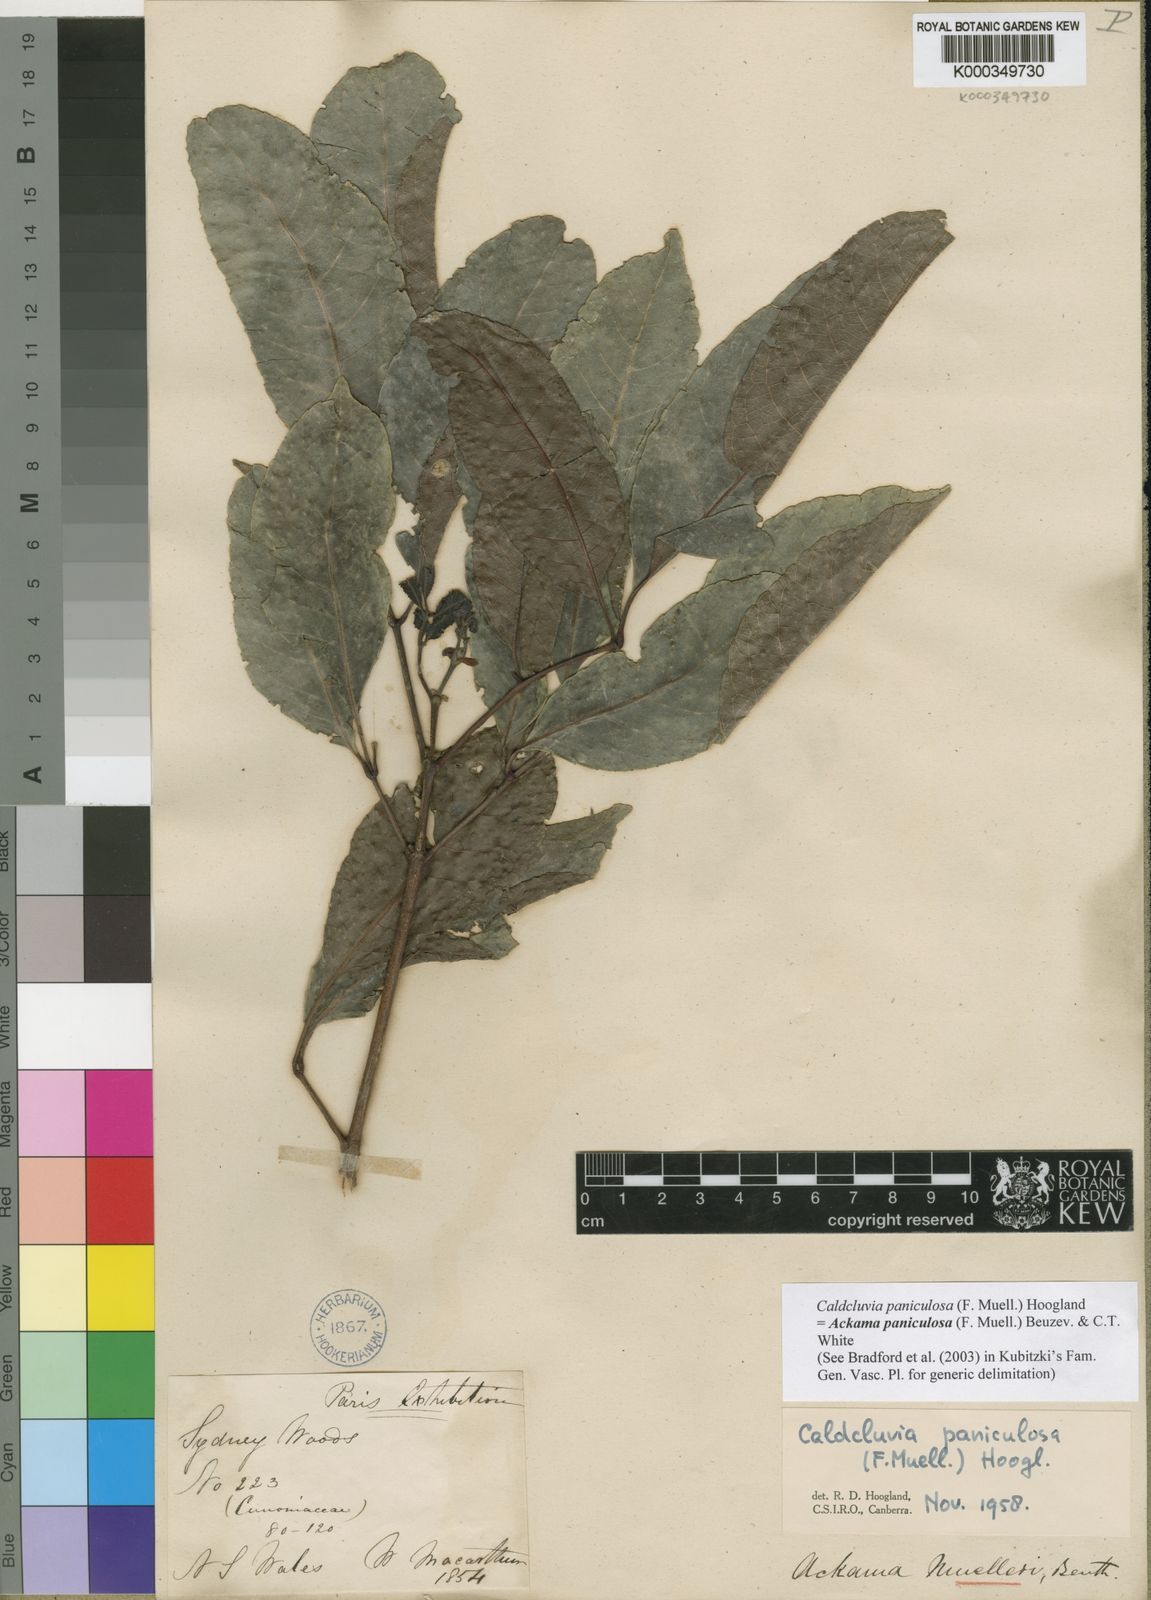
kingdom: Plantae
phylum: Tracheophyta
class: Magnoliopsida
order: Oxalidales
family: Cunoniaceae
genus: Ackama
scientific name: Ackama paniculosa
